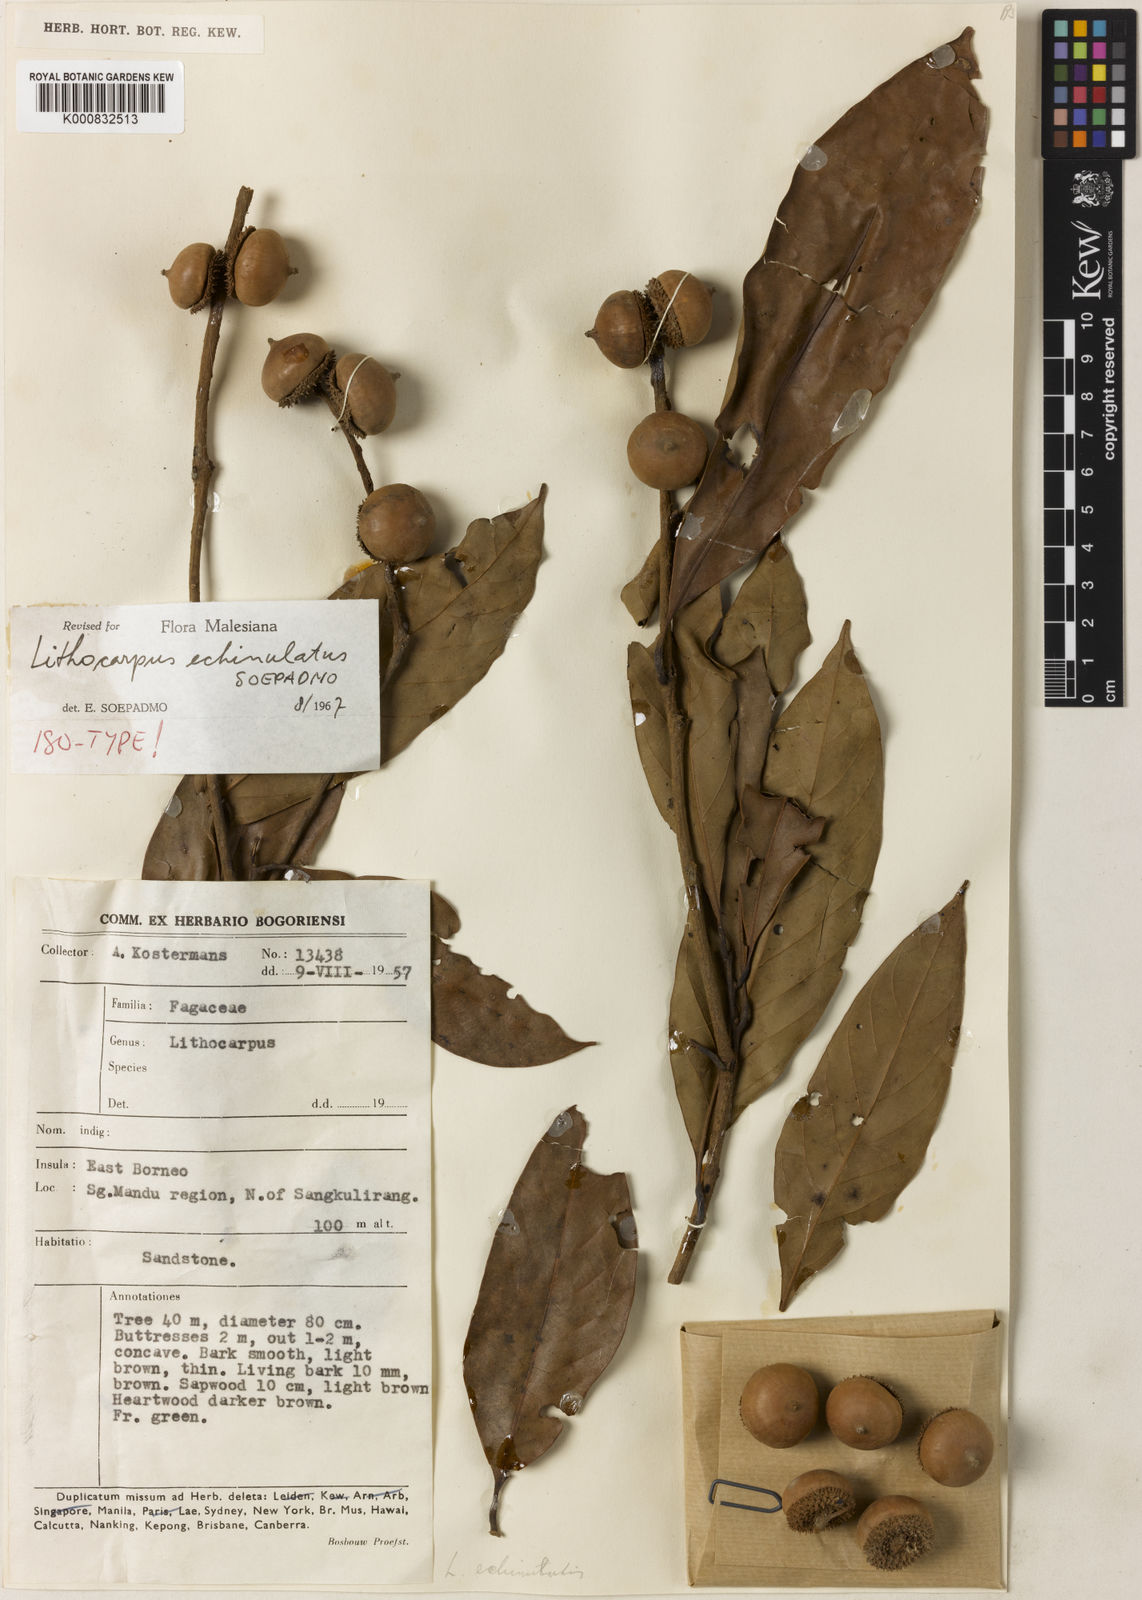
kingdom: Plantae
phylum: Tracheophyta
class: Magnoliopsida
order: Fagales
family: Fagaceae
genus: Lithocarpus
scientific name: Lithocarpus echinulatus
